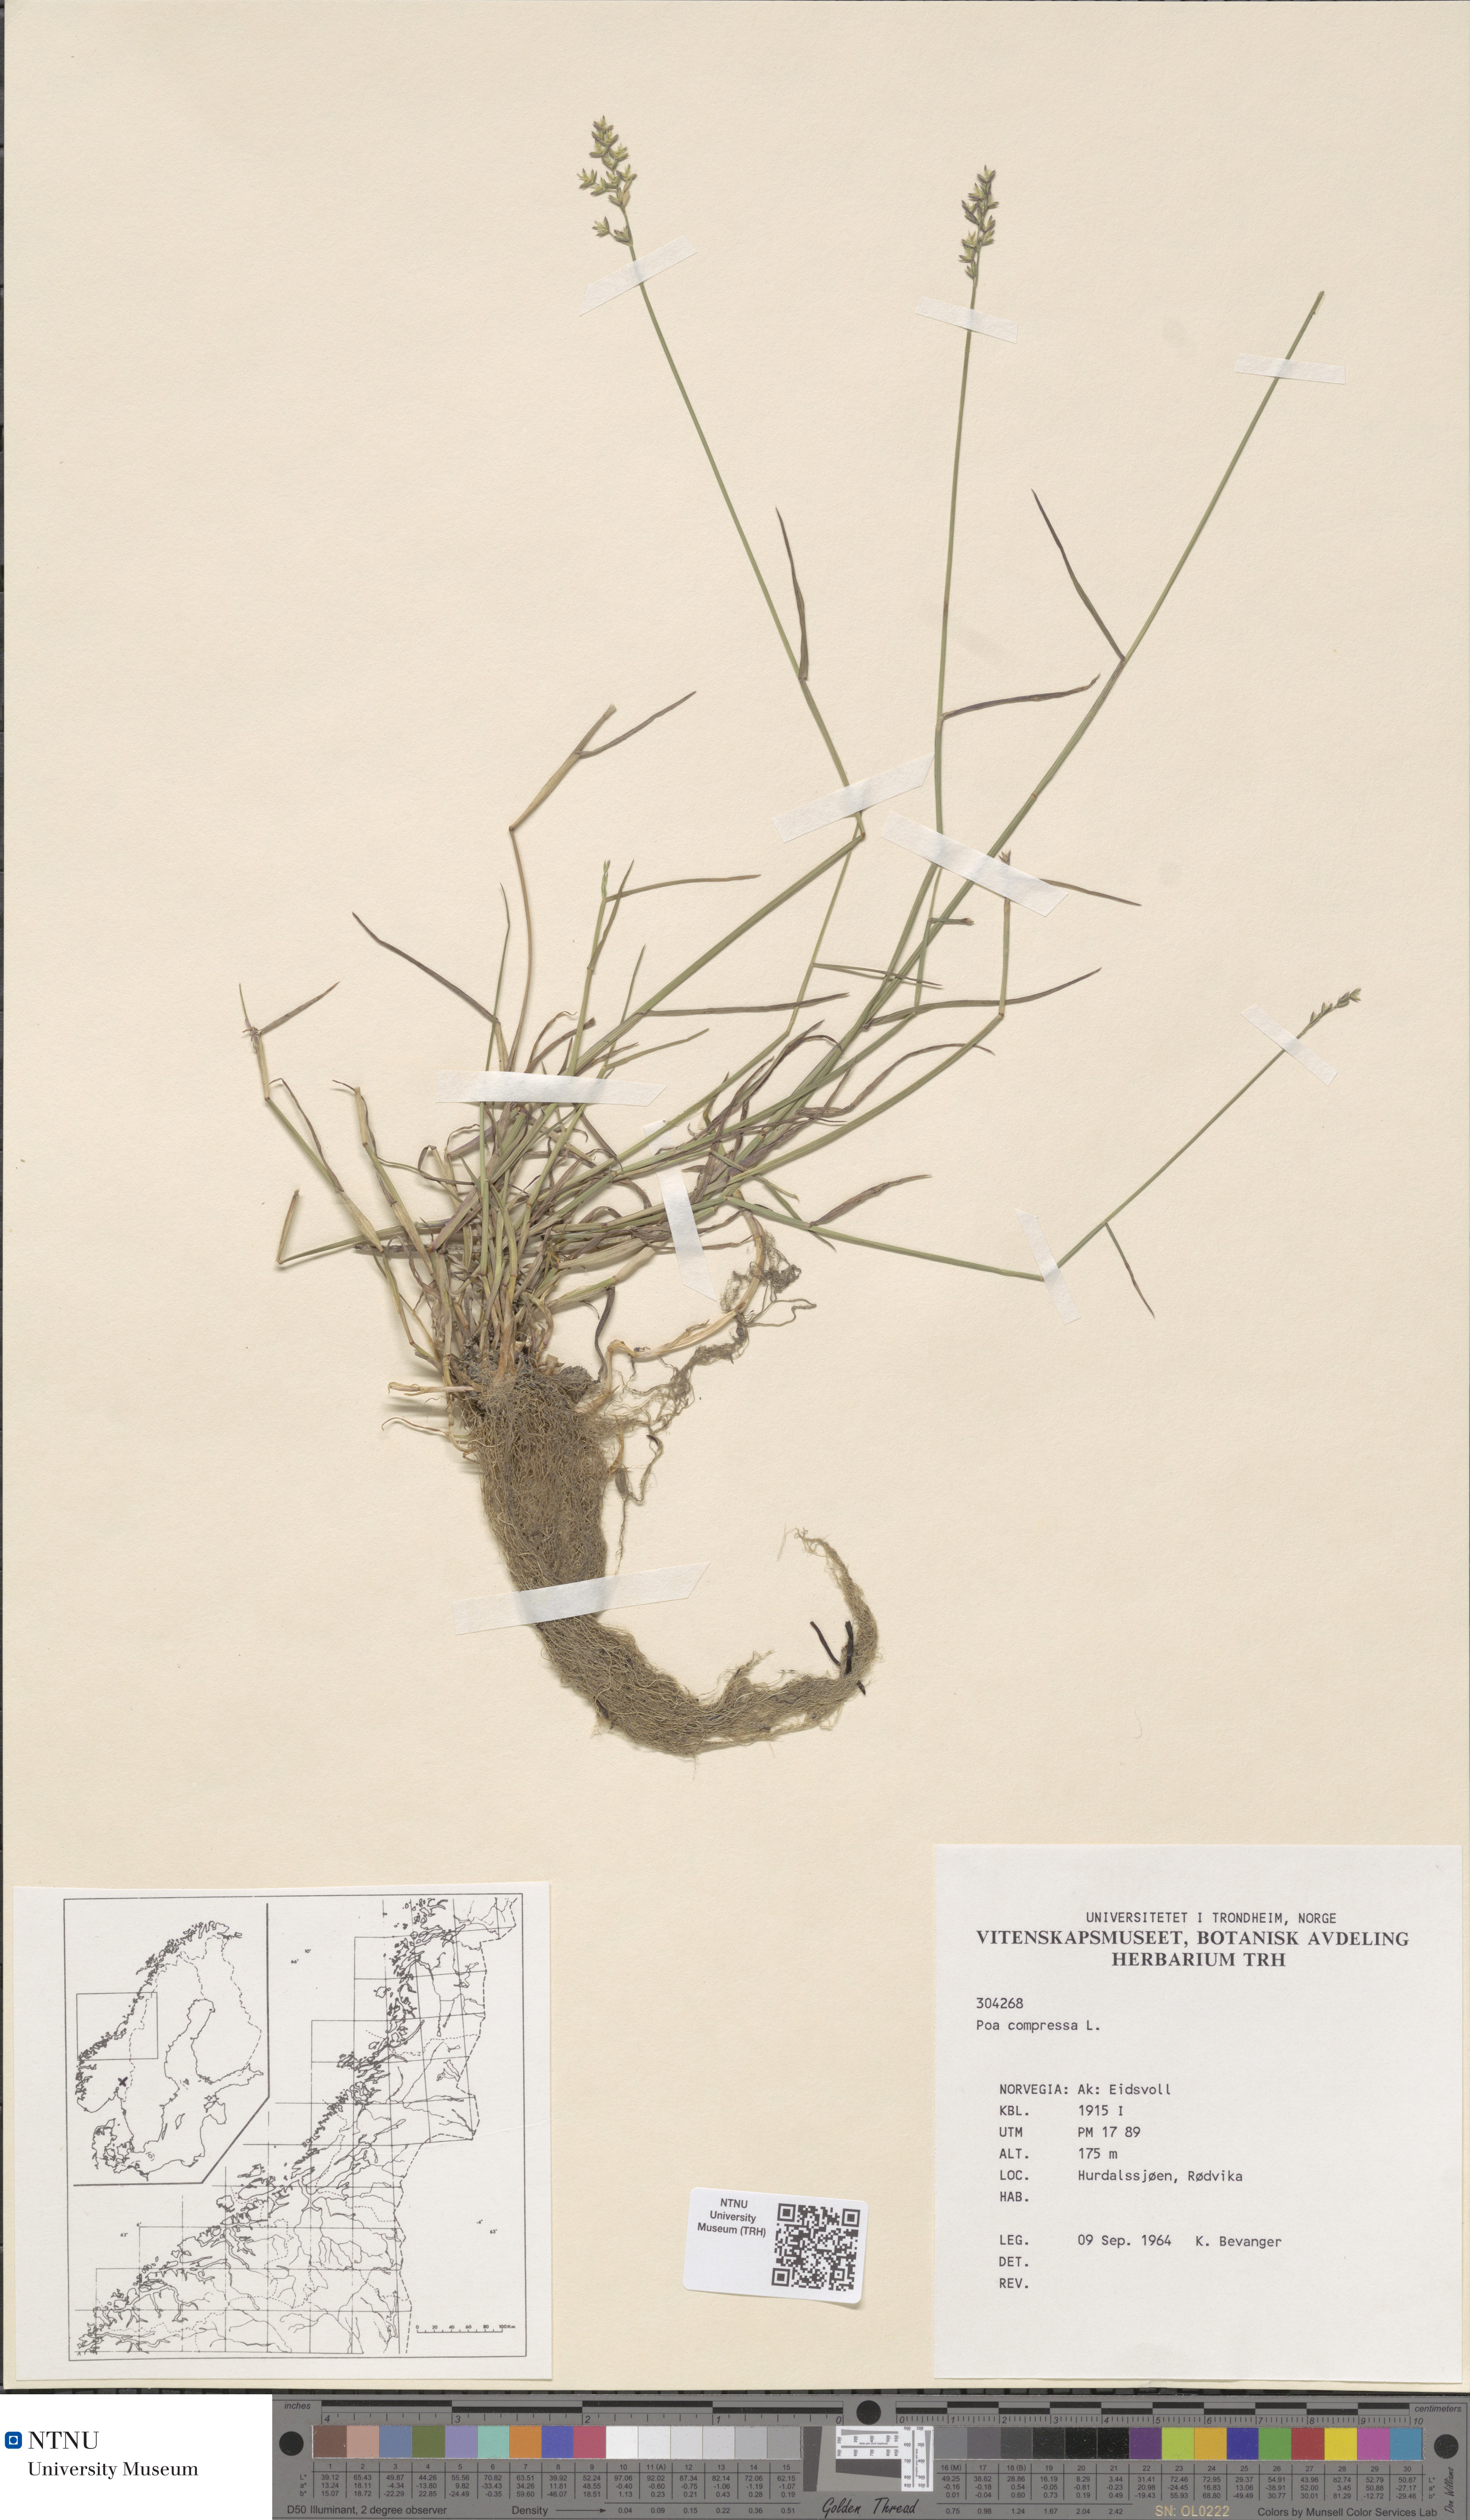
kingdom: Plantae
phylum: Tracheophyta
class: Liliopsida
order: Poales
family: Poaceae
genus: Poa
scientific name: Poa compressa
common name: Canada bluegrass
